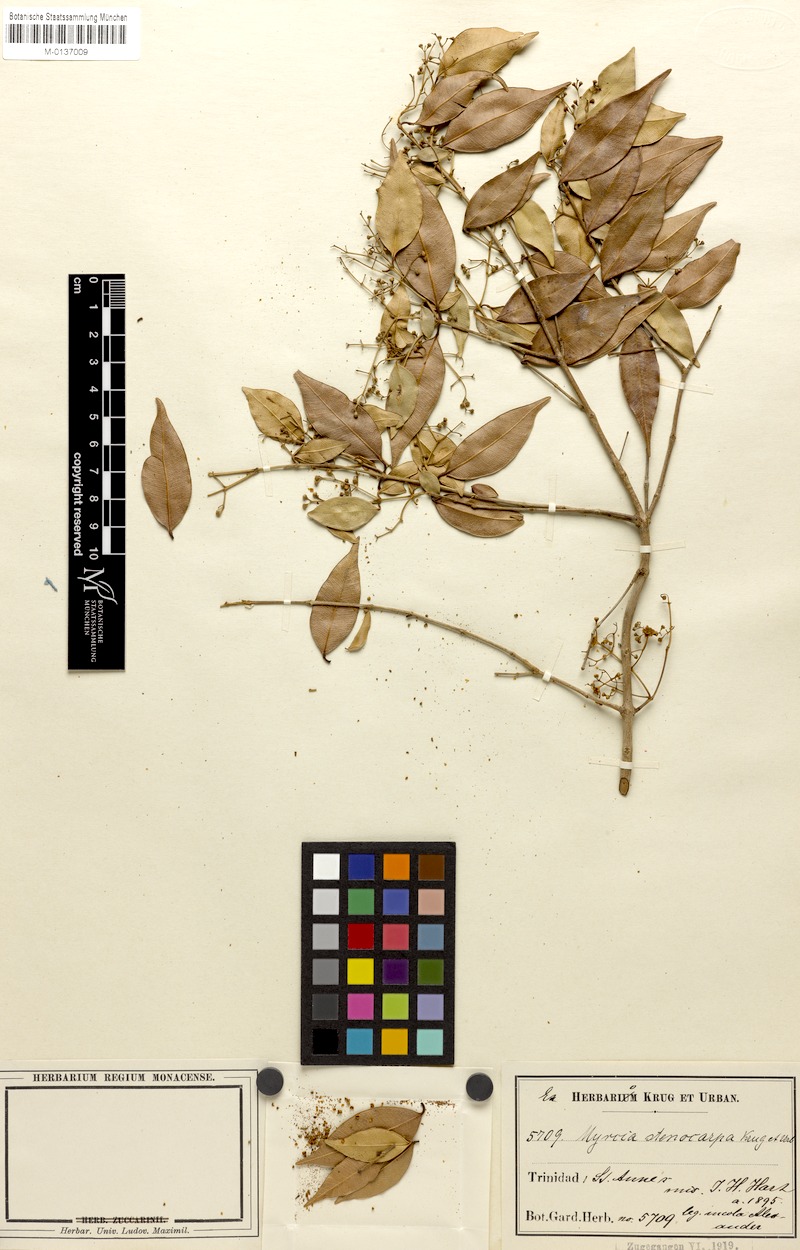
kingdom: Plantae
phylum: Tracheophyta
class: Magnoliopsida
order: Myrtales
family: Myrtaceae
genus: Myrcia
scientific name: Myrcia stenocarpa
